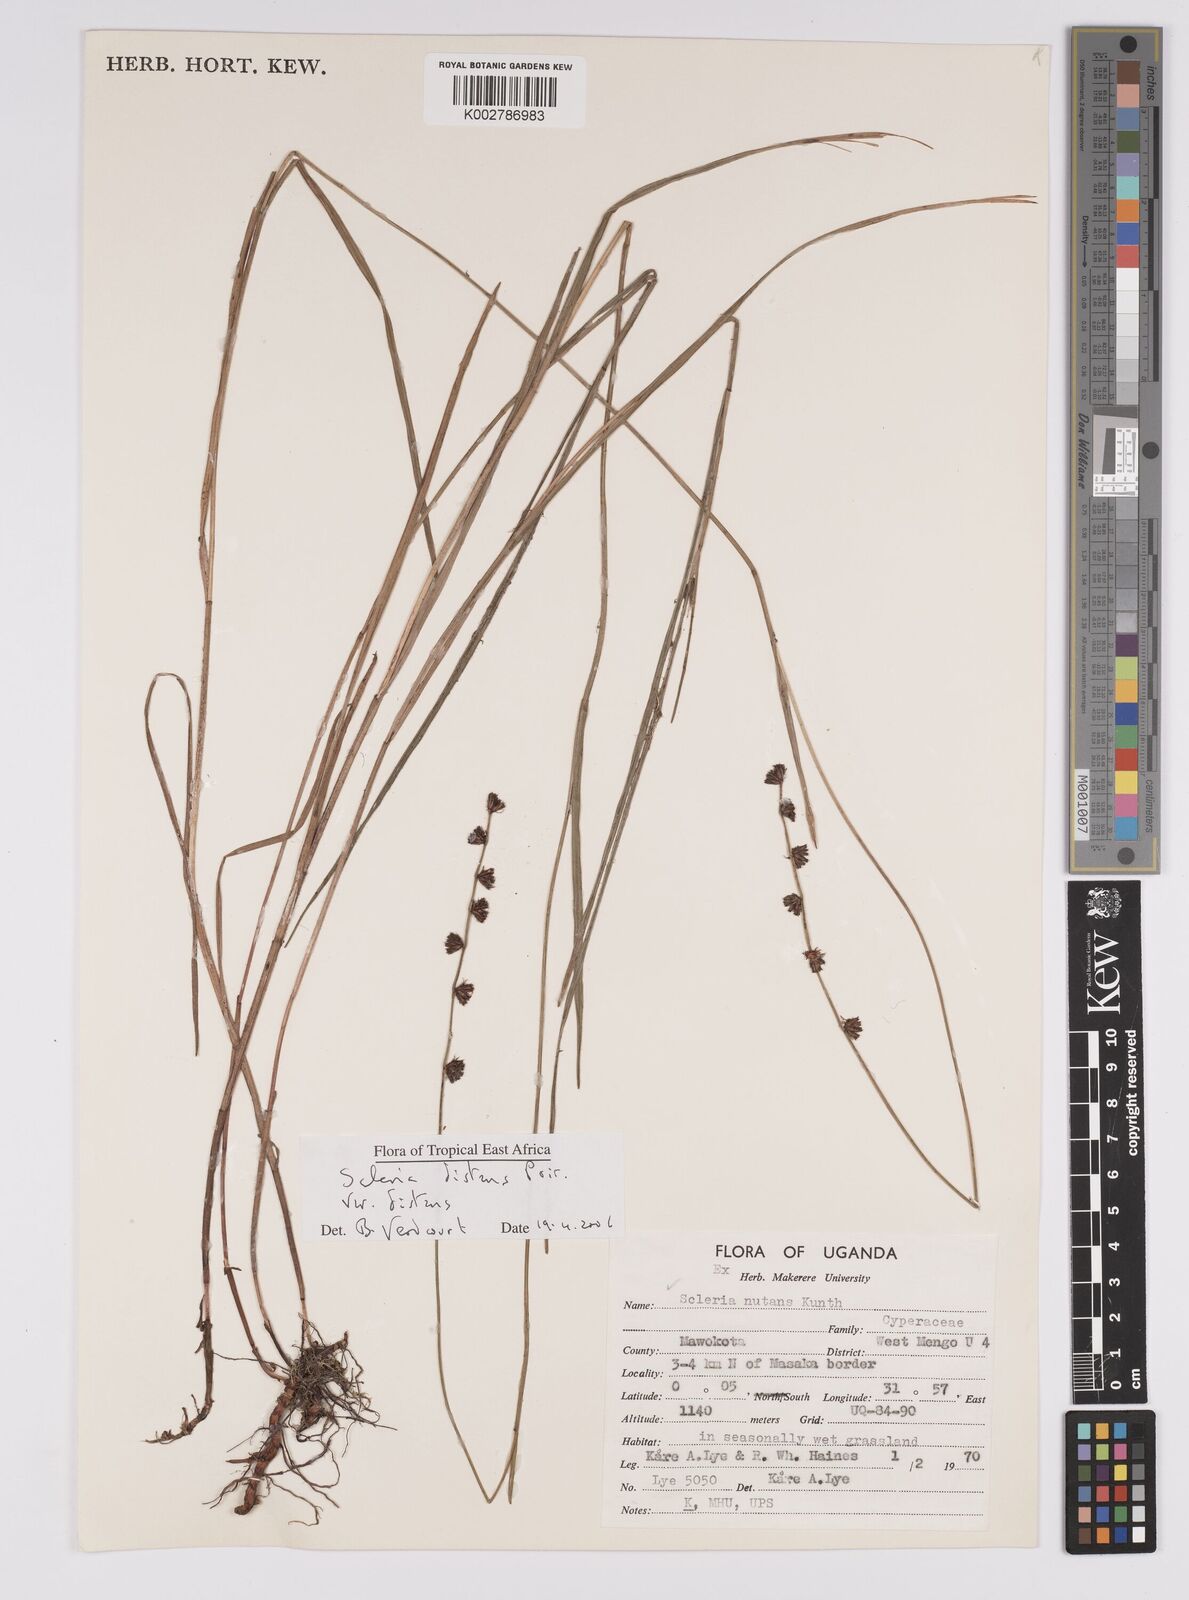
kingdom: Plantae
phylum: Tracheophyta
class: Liliopsida
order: Poales
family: Cyperaceae
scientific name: Cyperaceae
